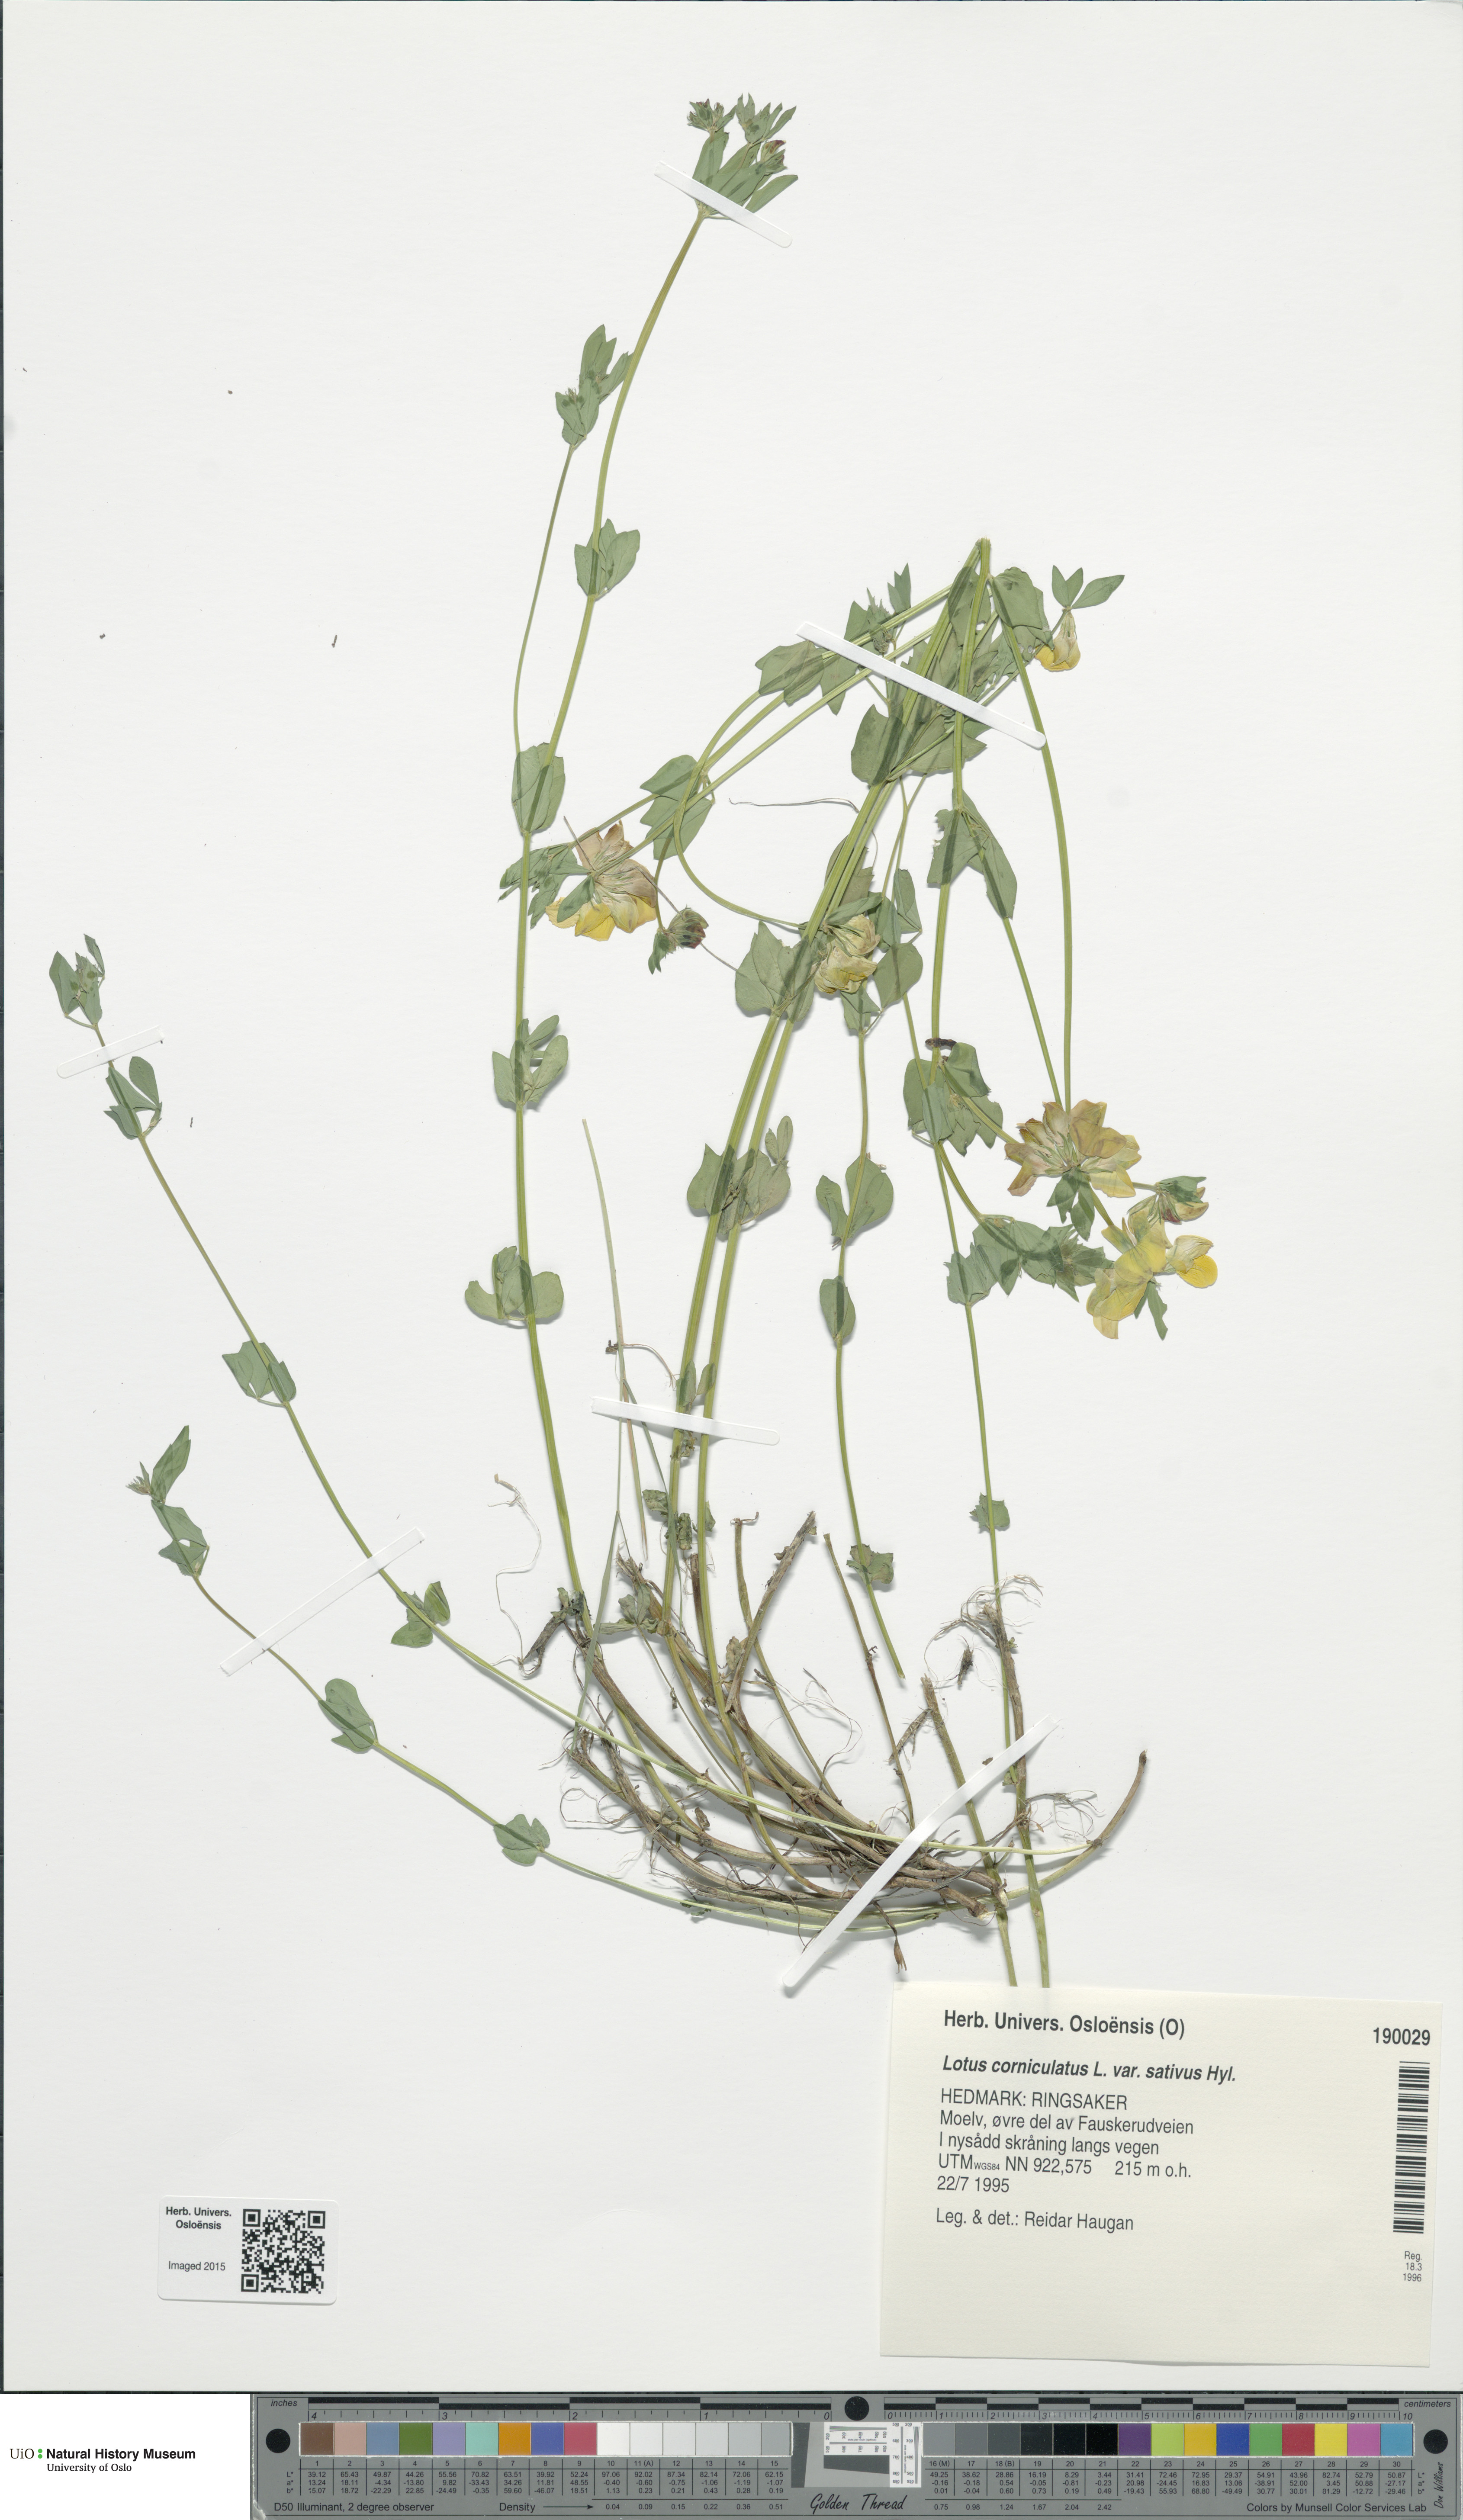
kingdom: Plantae
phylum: Tracheophyta
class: Magnoliopsida
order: Fabales
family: Fabaceae
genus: Lotus
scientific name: Lotus corniculatus
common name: Common bird's-foot-trefoil
